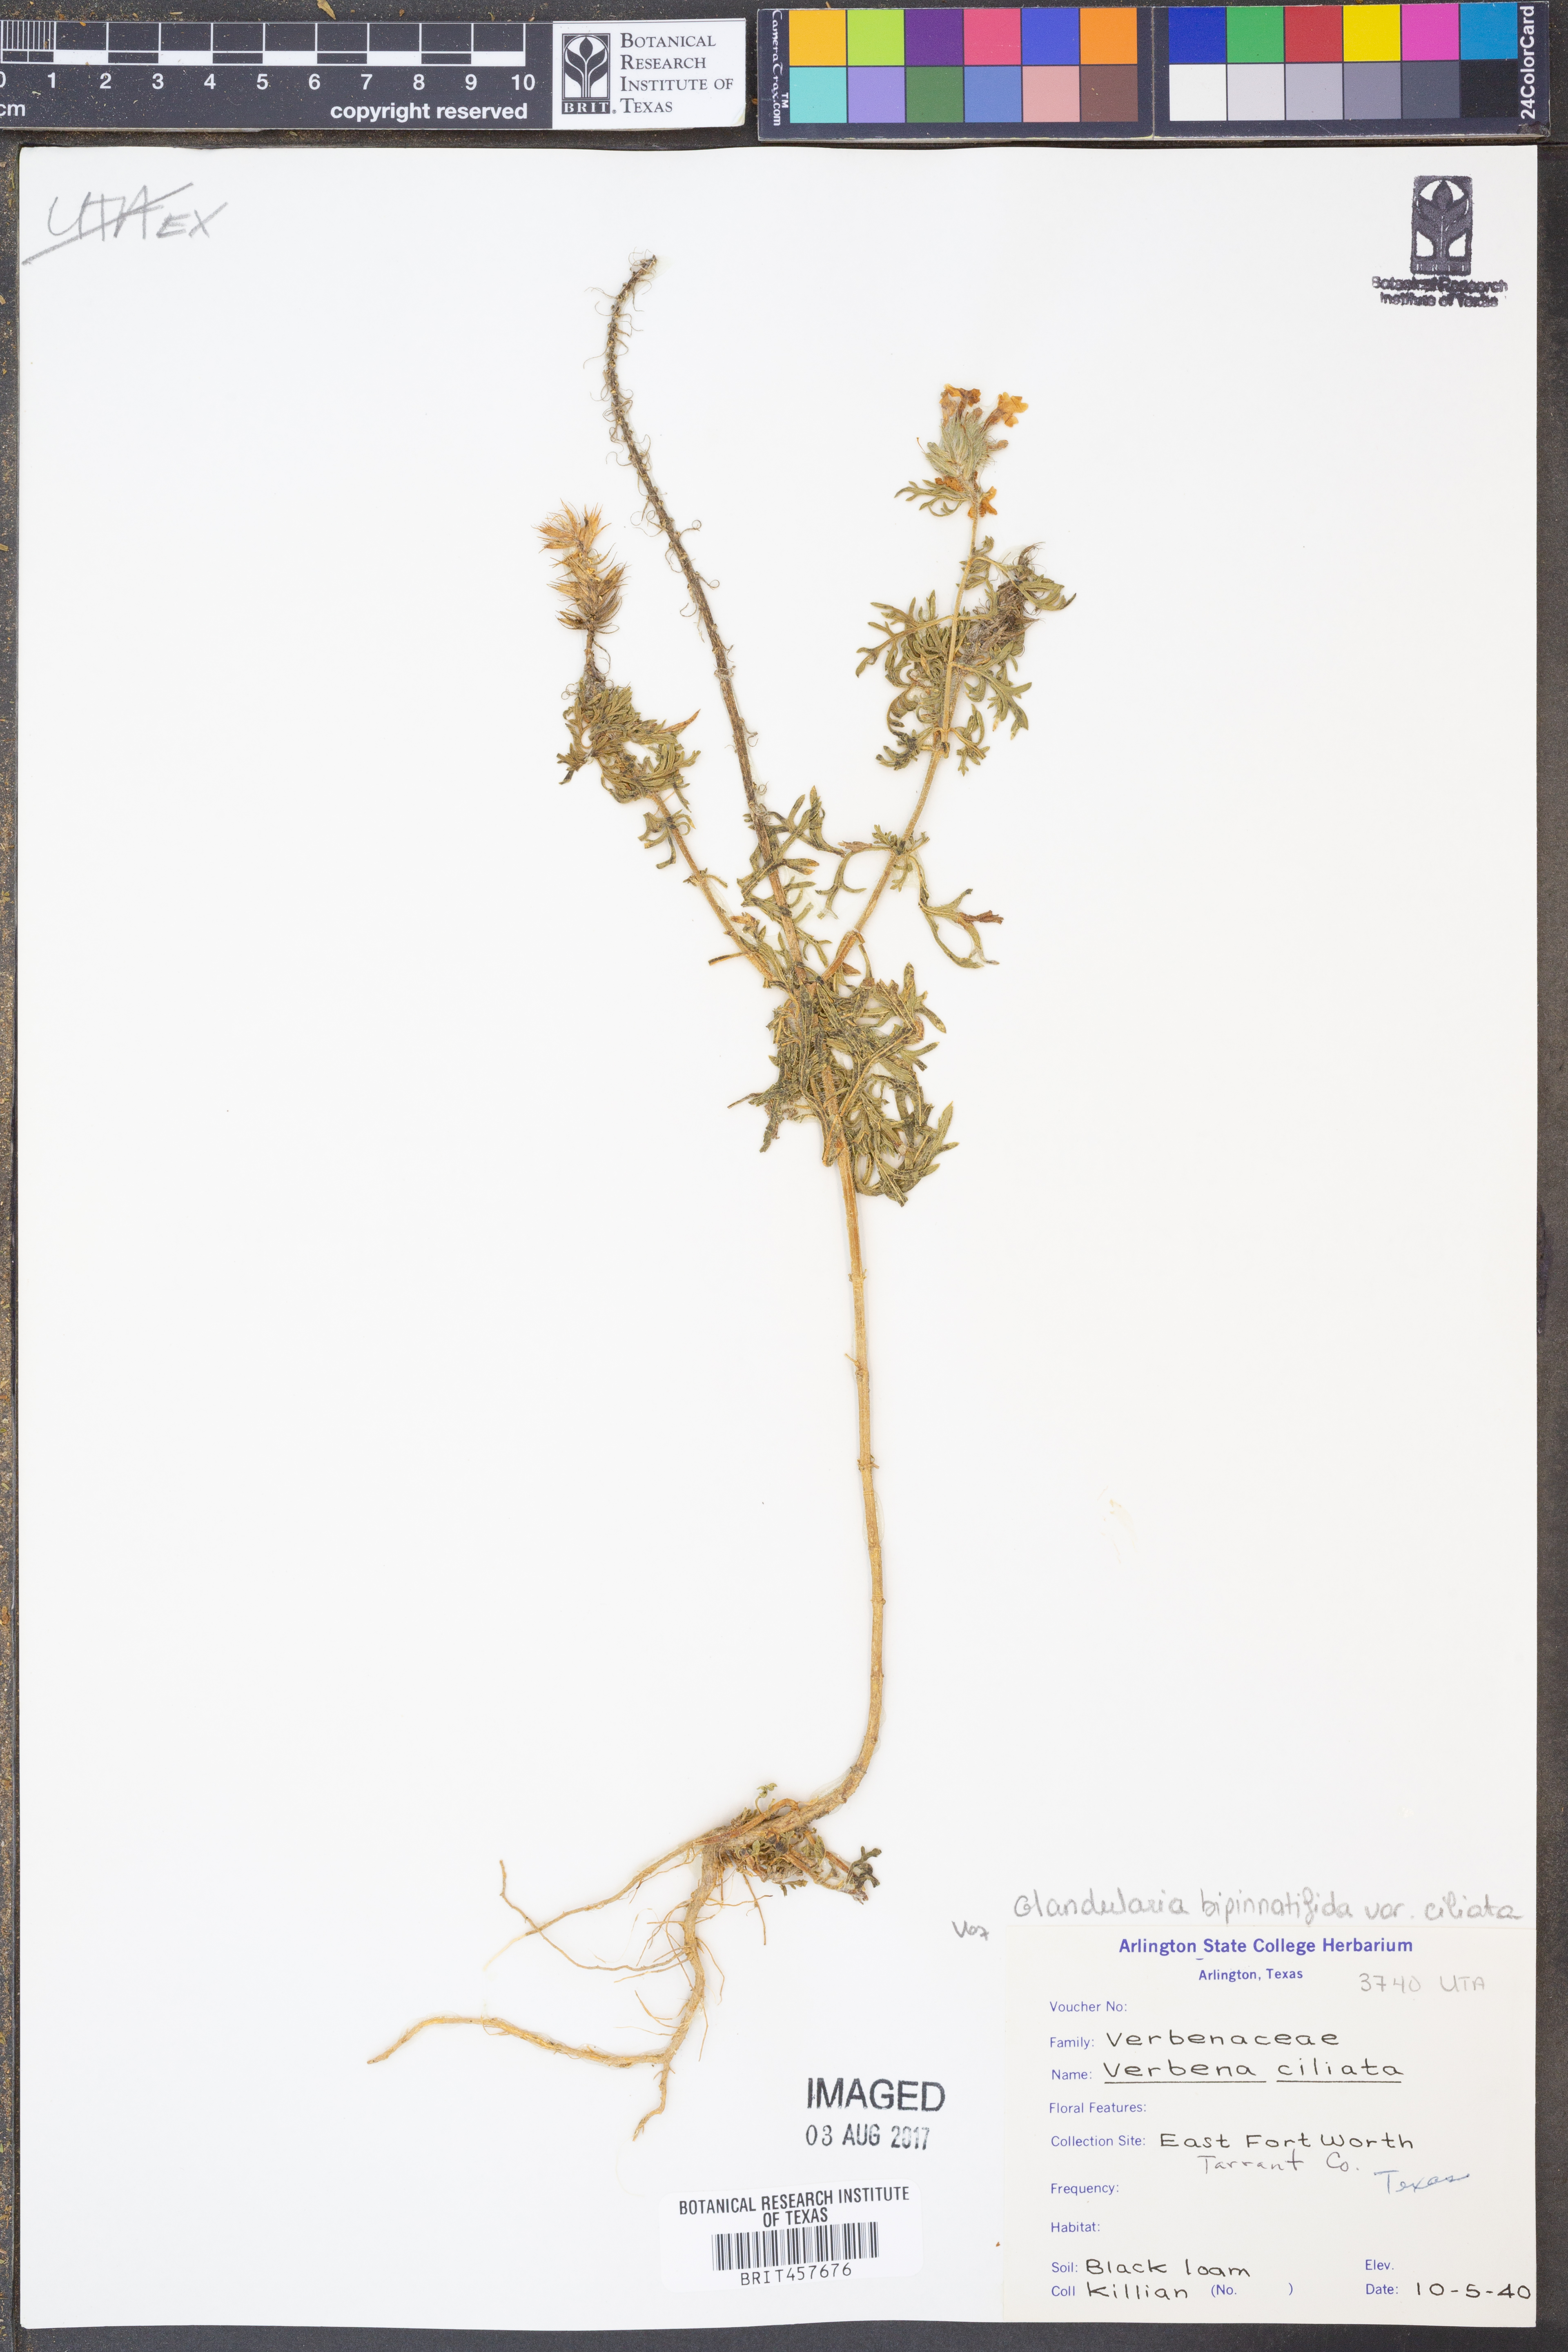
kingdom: Plantae
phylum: Tracheophyta
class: Magnoliopsida
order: Lamiales
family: Verbenaceae
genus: Verbena
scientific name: Verbena bipinnatifida
